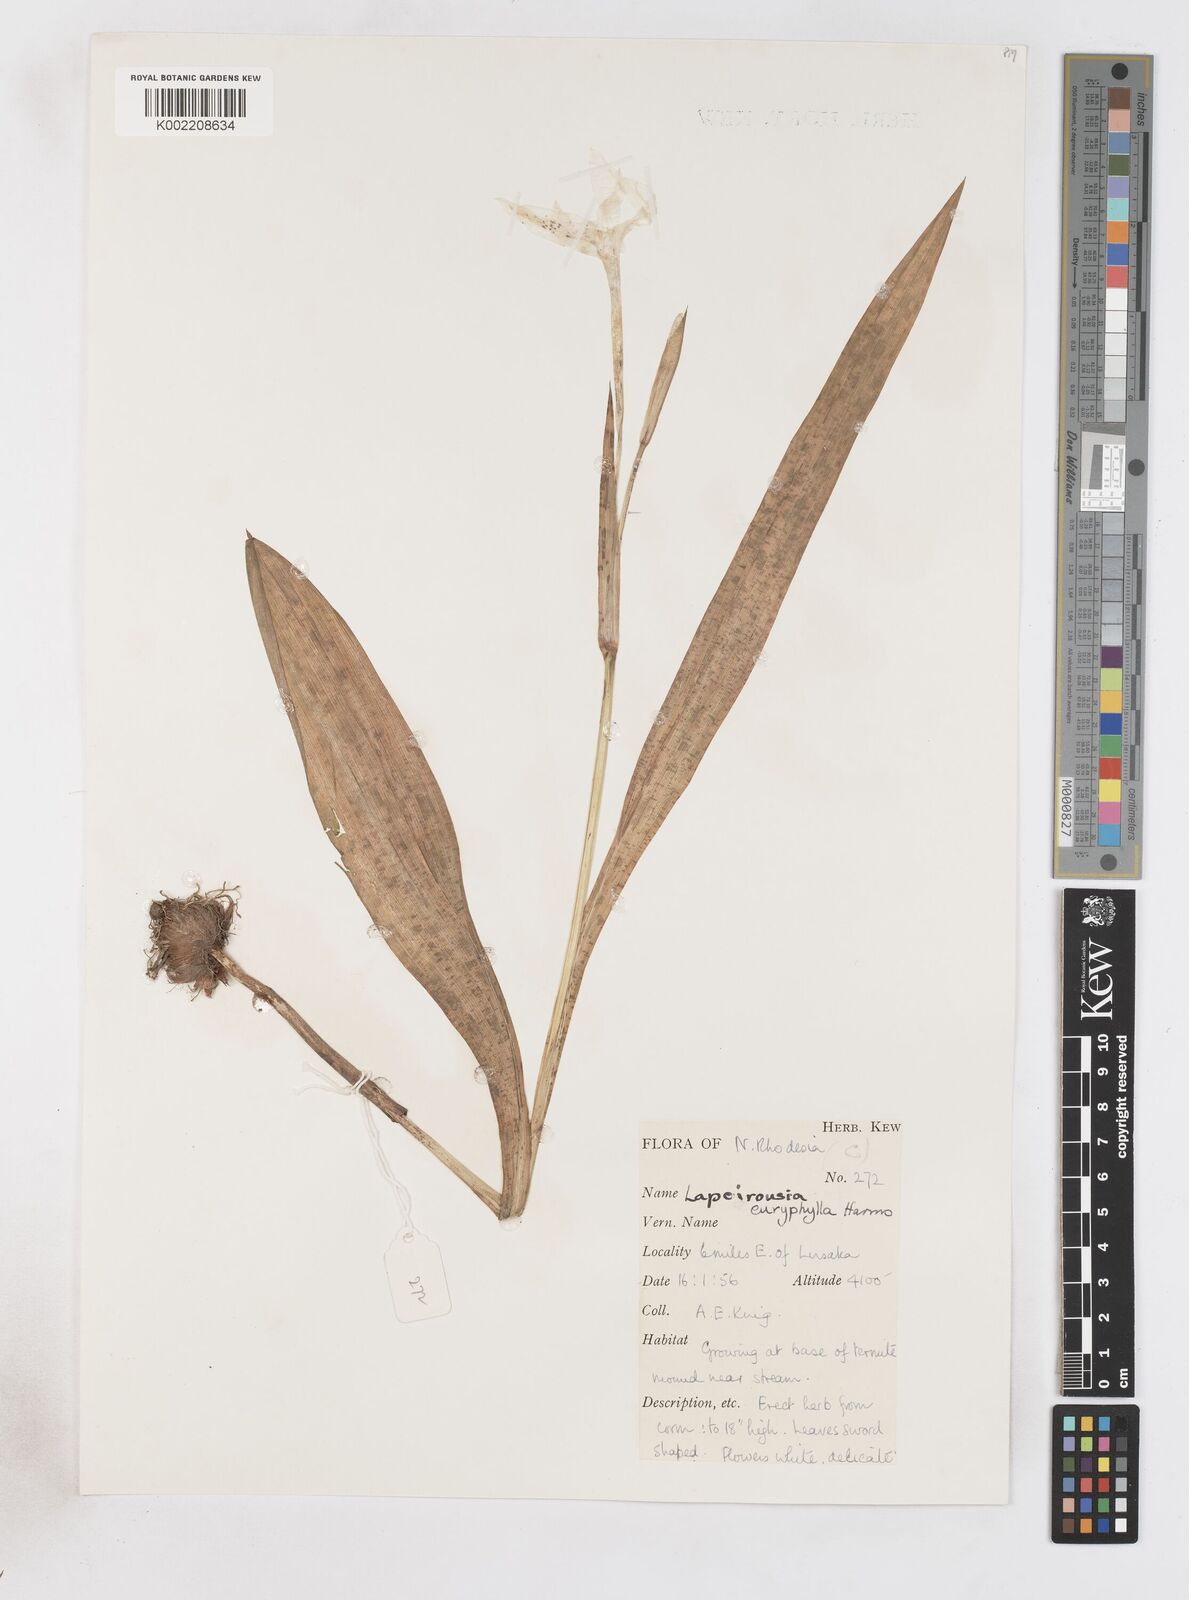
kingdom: Plantae
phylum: Tracheophyta
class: Liliopsida
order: Asparagales
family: Iridaceae
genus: Savannosiphon
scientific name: Savannosiphon euryphylla
